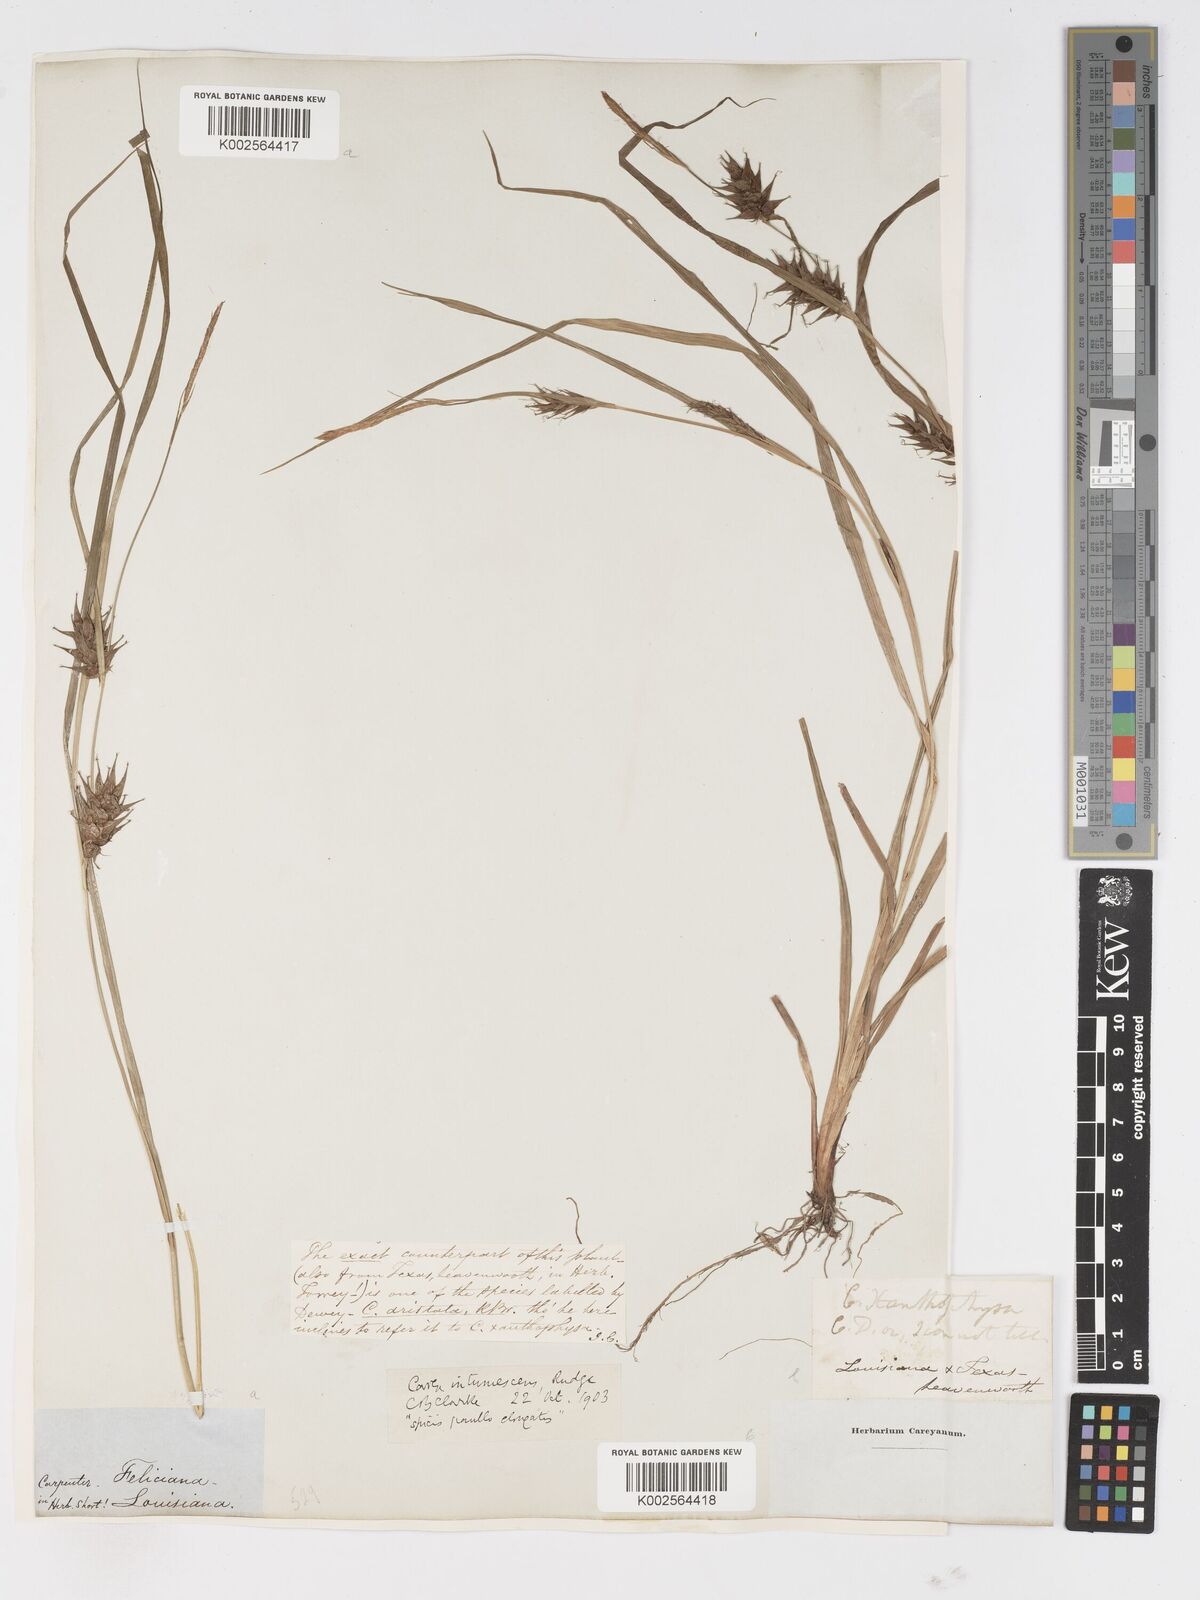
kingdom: Plantae
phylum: Tracheophyta
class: Liliopsida
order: Poales
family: Cyperaceae
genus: Carex
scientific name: Carex intumescens
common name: Greater bladder sedge
